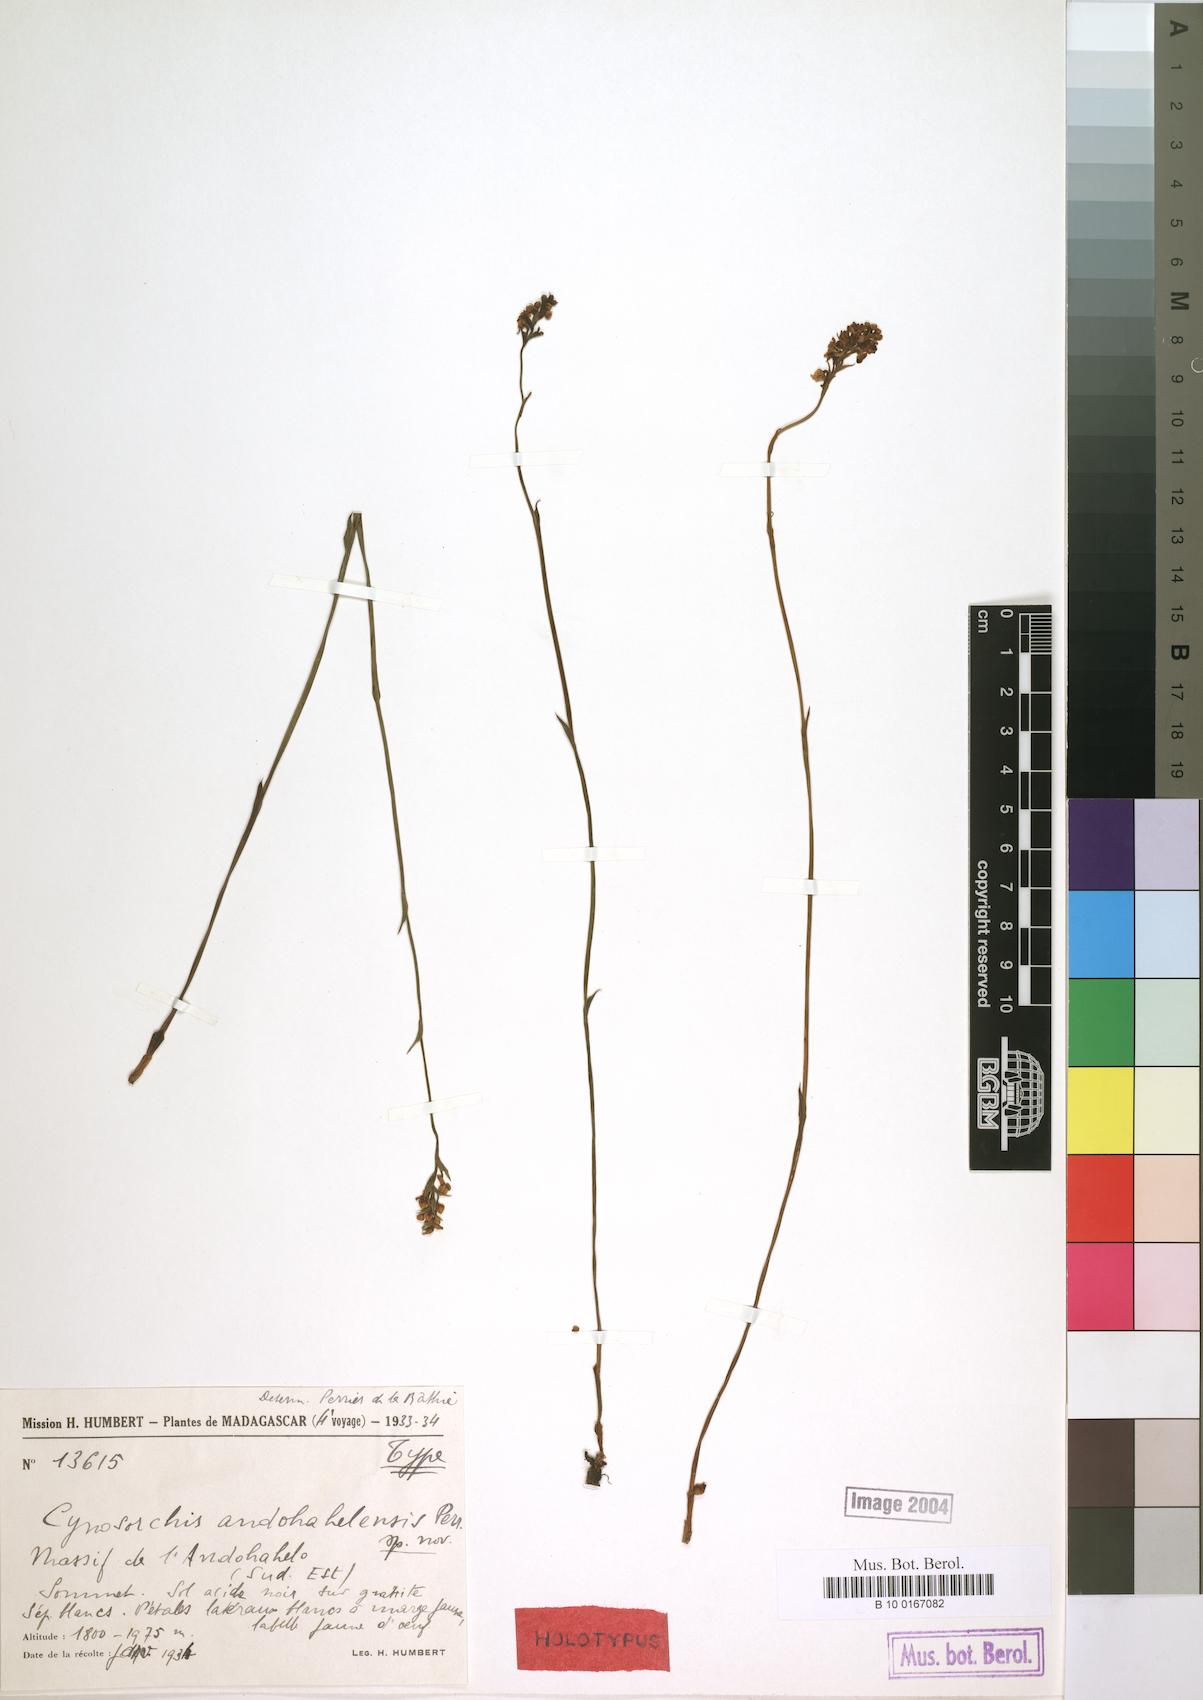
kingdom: Plantae
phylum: Tracheophyta
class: Liliopsida
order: Asparagales
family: Orchidaceae
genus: Cynorkis
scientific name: Cynorkis
